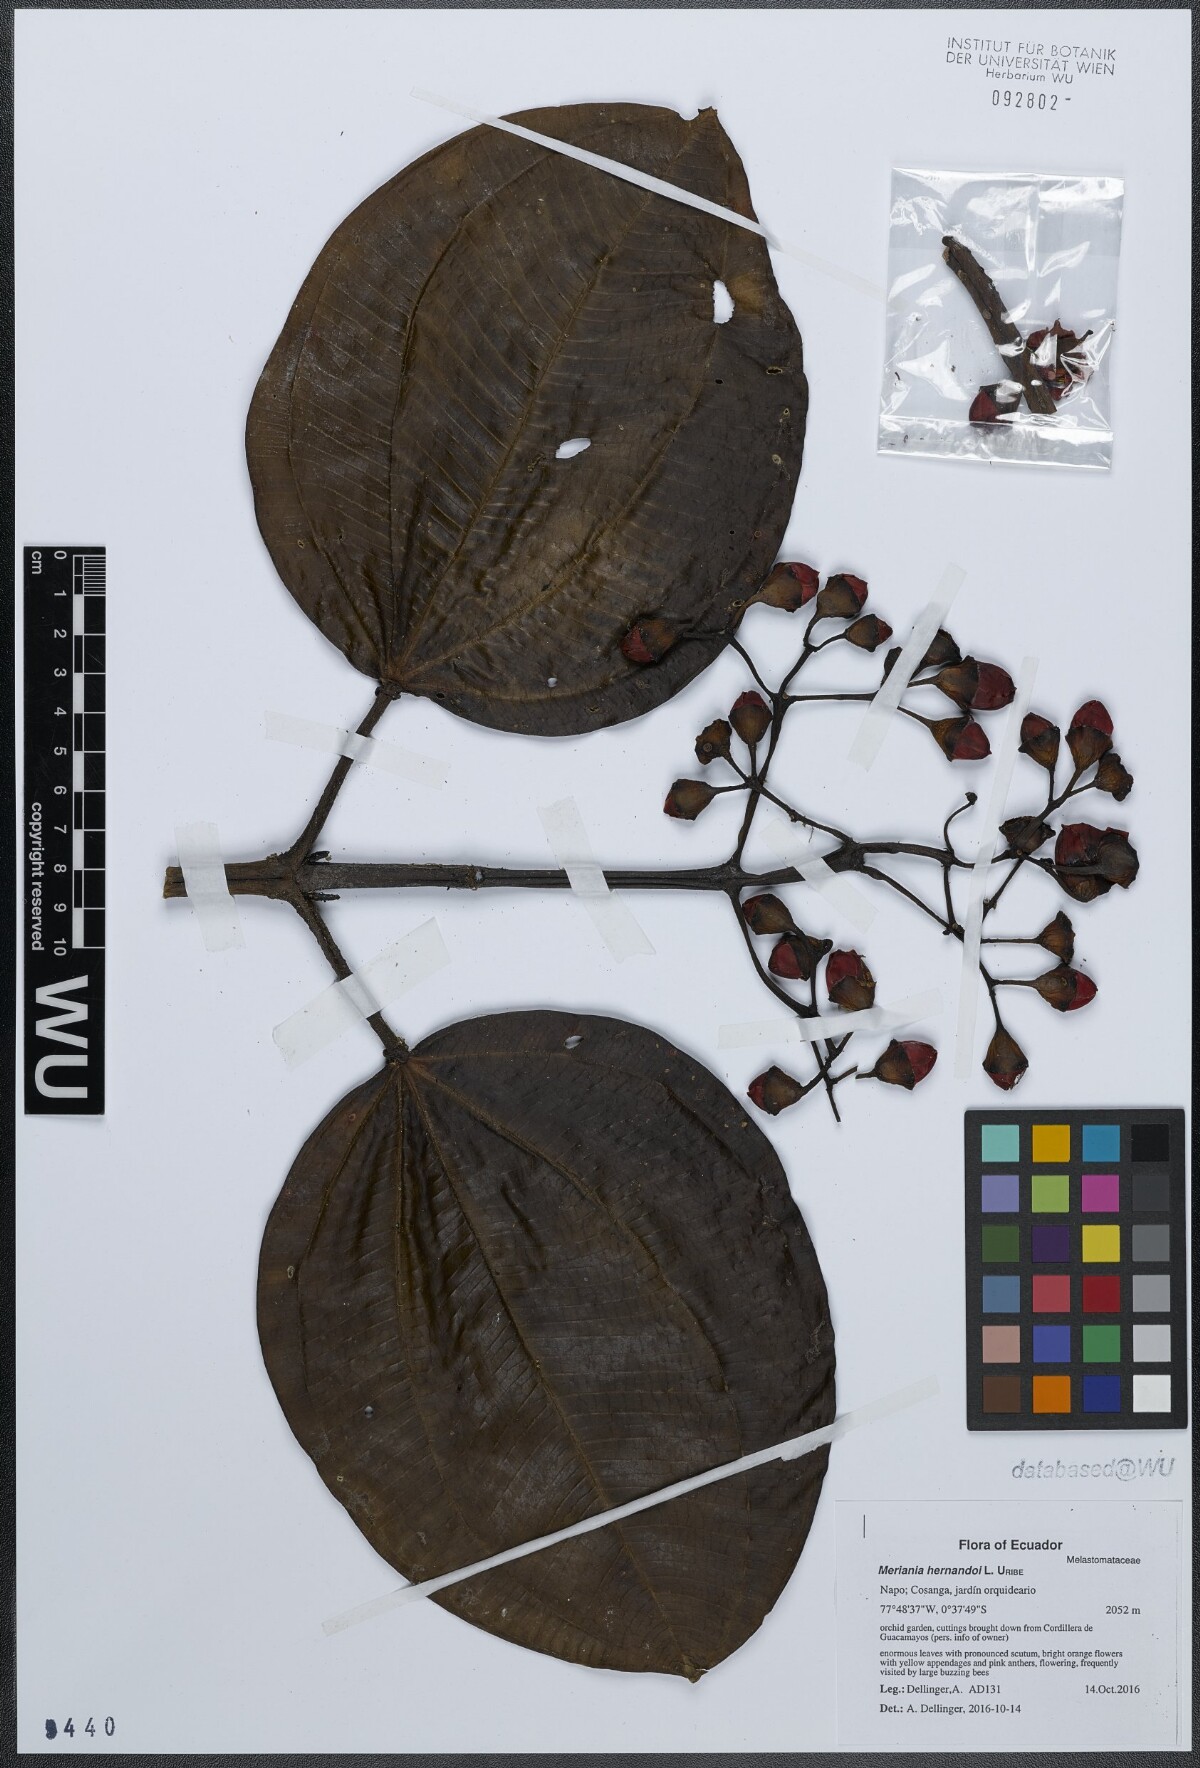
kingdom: Plantae
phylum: Tracheophyta
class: Magnoliopsida
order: Myrtales
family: Melastomataceae
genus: Meriania
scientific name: Meriania hernandoi
